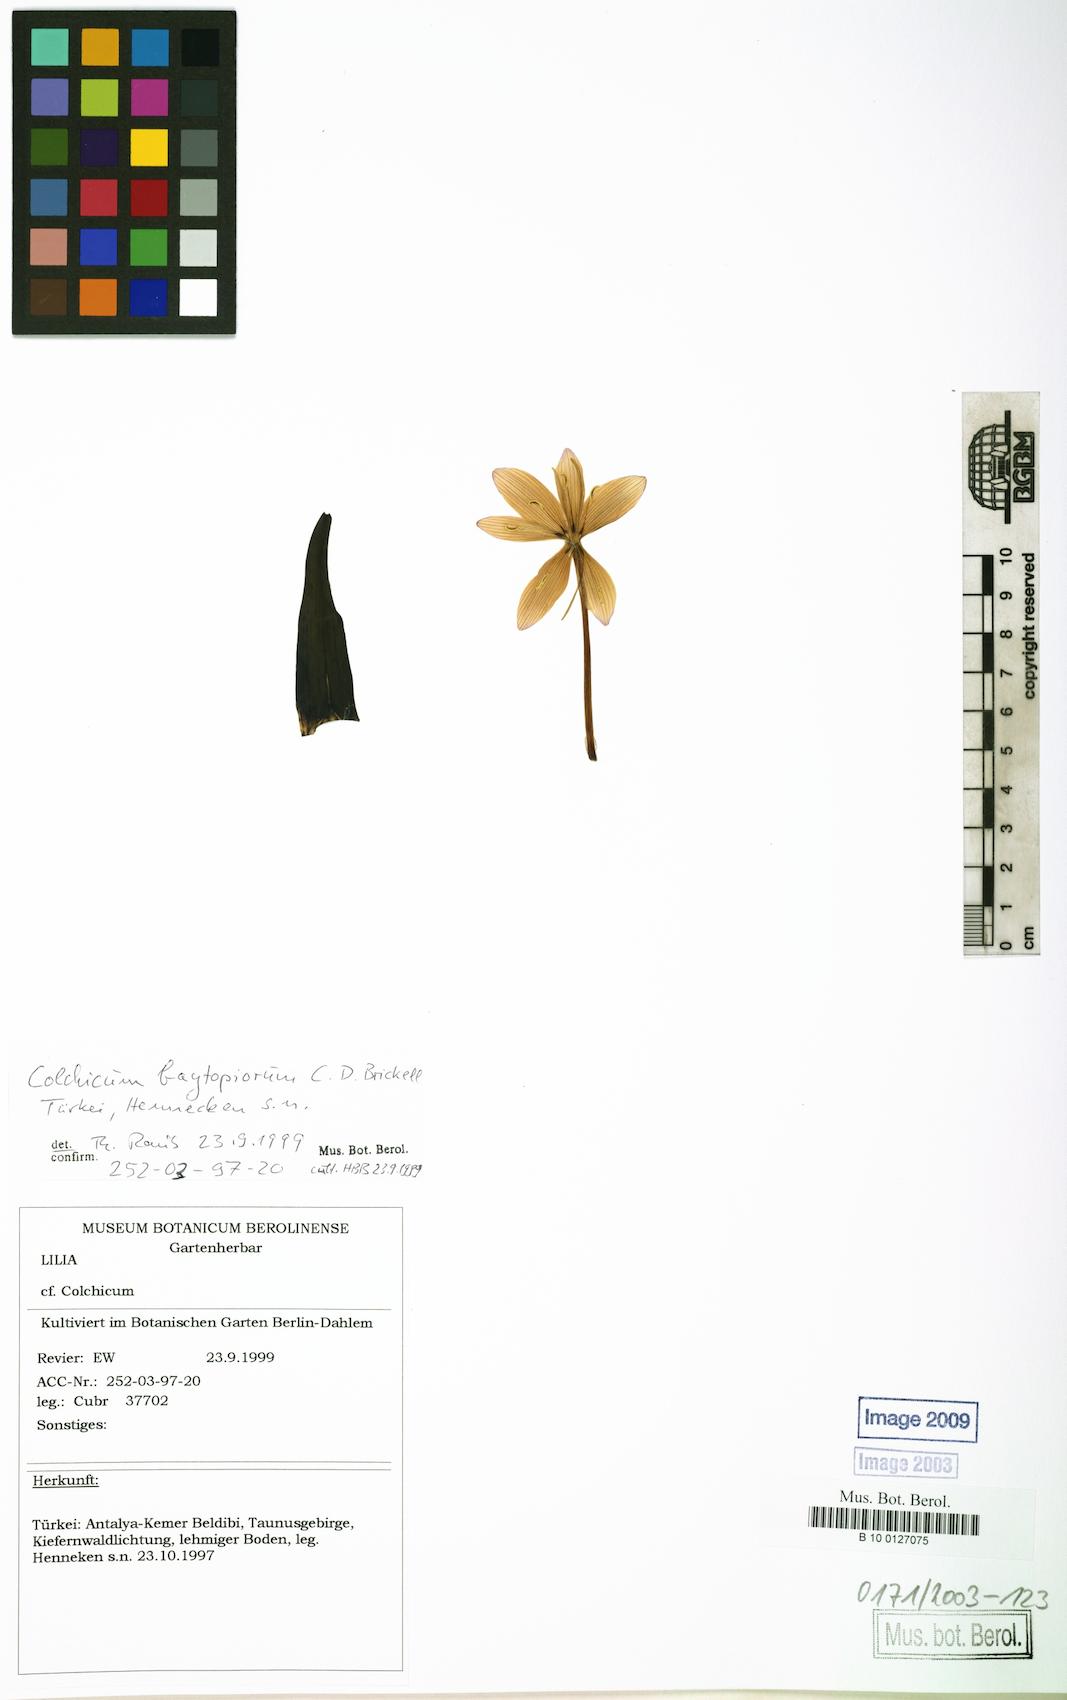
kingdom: Plantae
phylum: Tracheophyta
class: Liliopsida
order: Liliales
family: Colchicaceae
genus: Colchicum
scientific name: Colchicum baytopiorum
